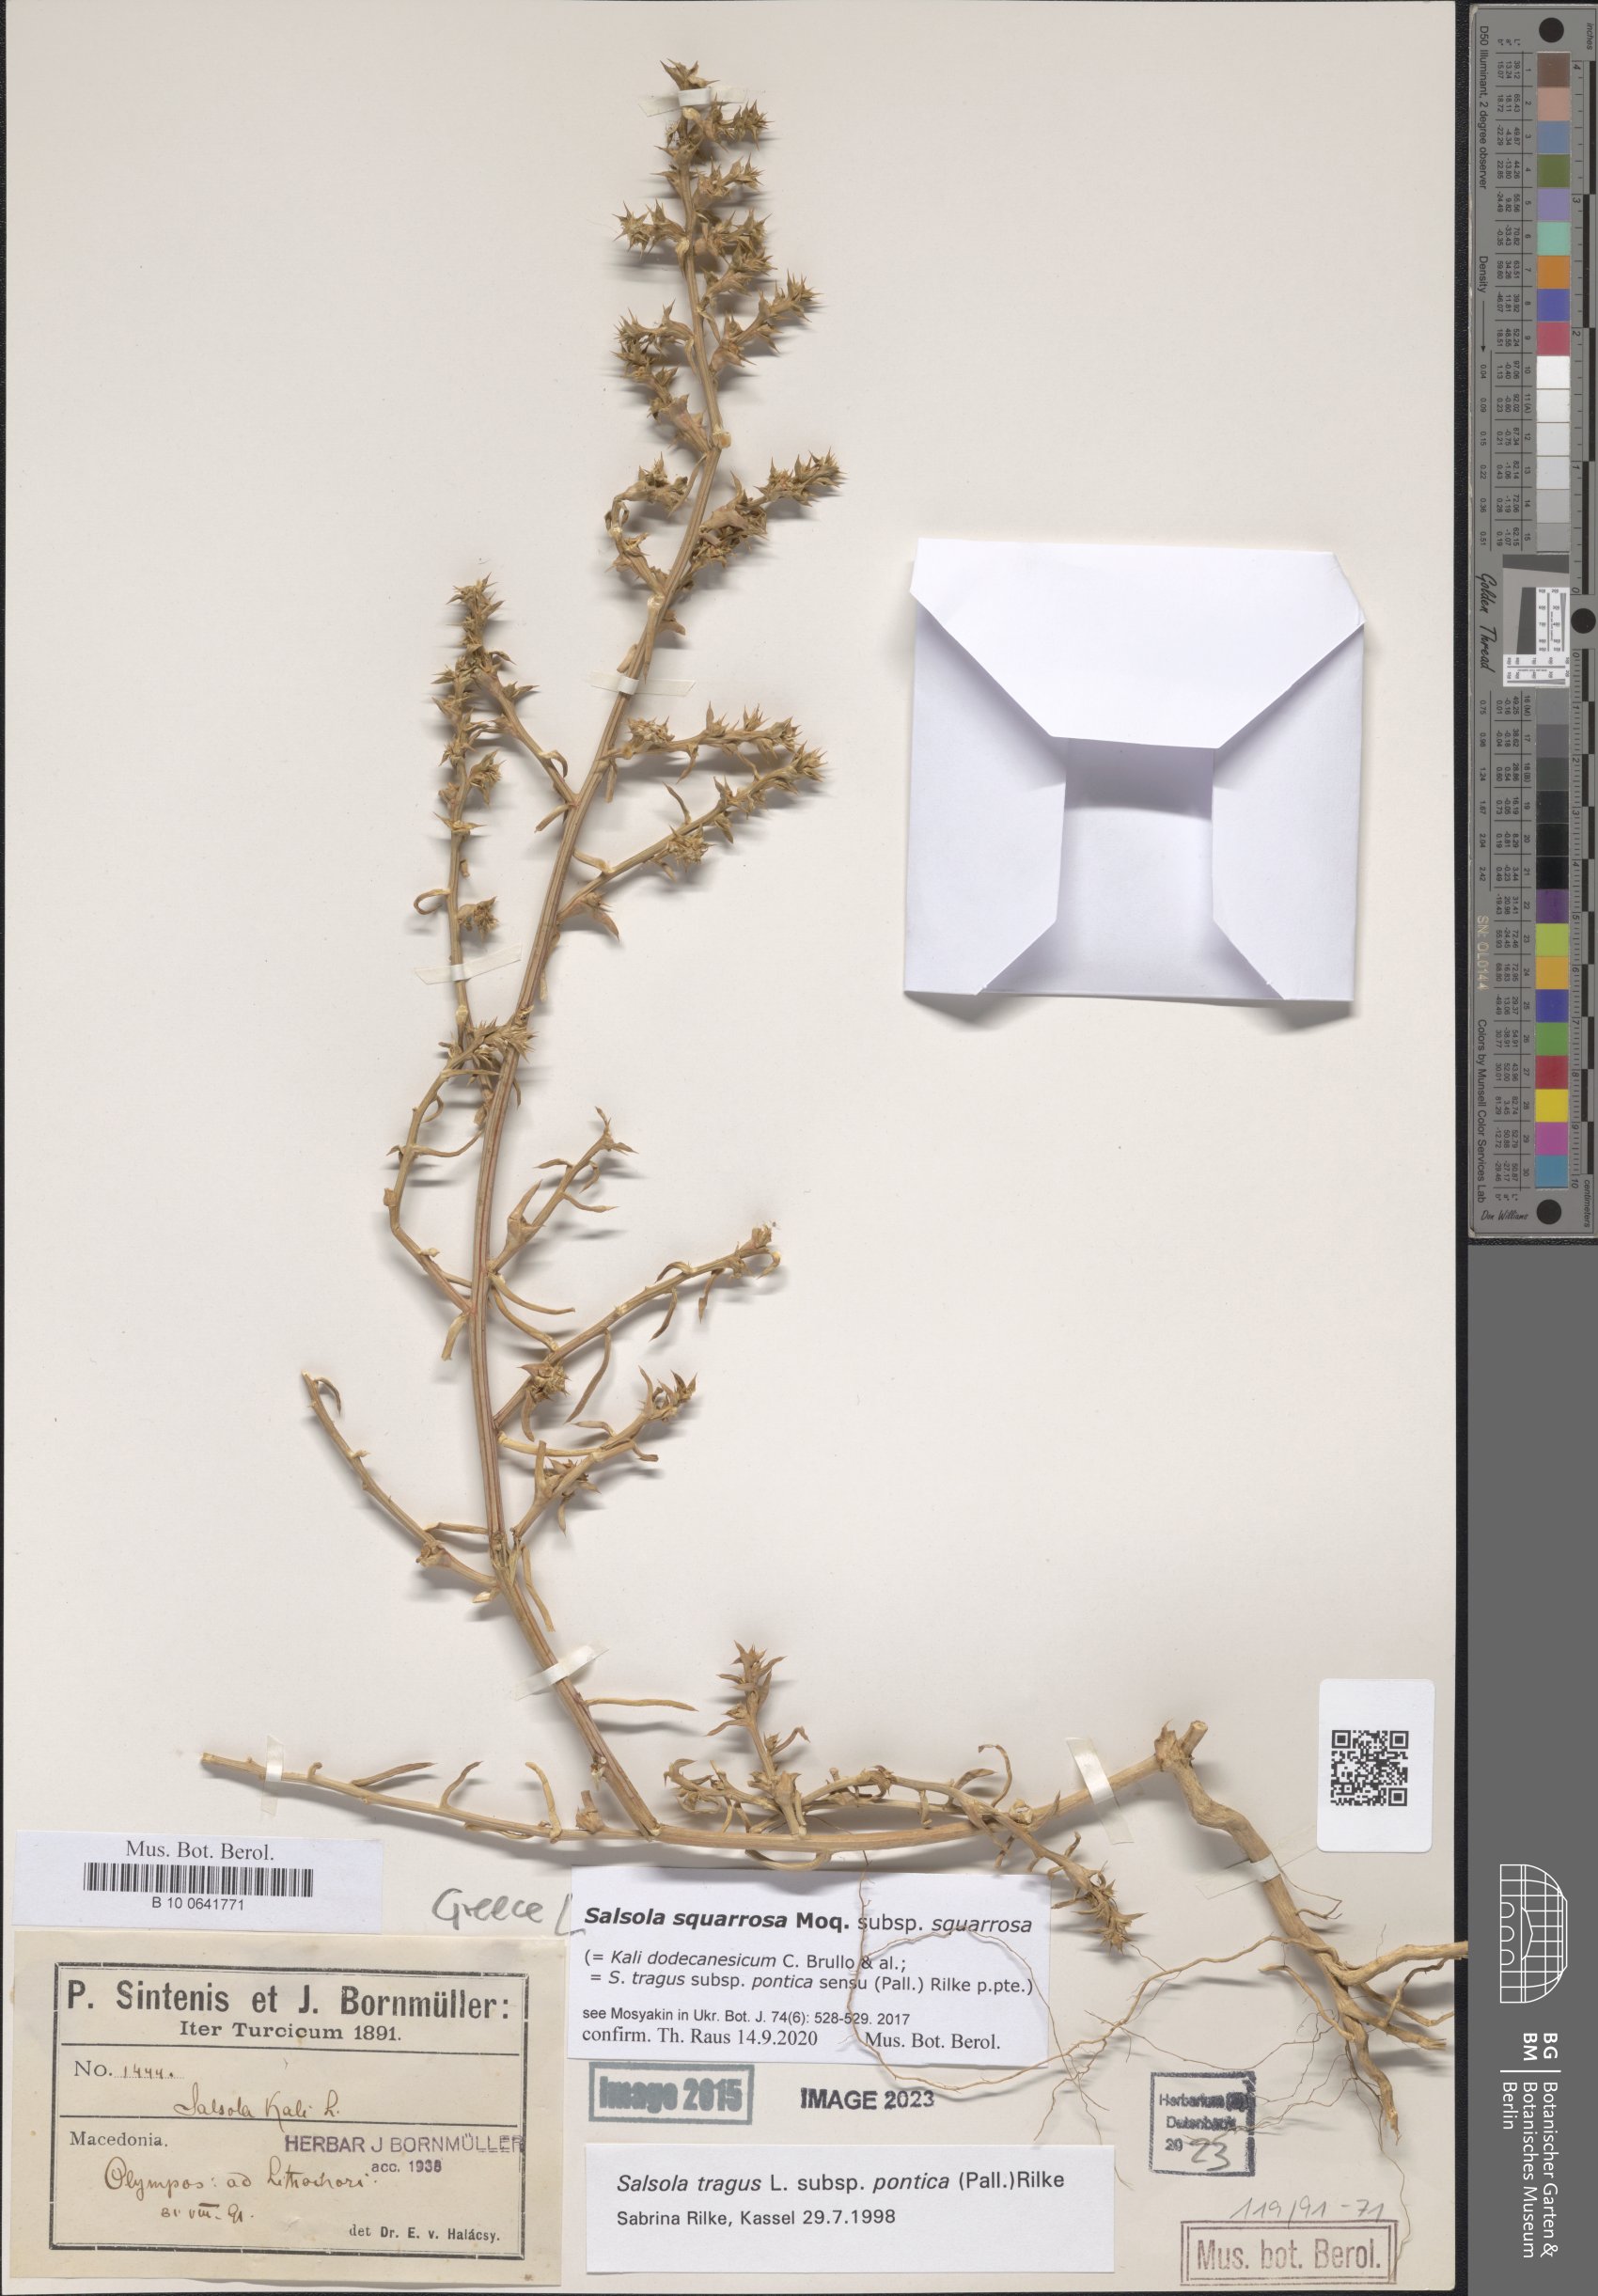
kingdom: Plantae
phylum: Tracheophyta
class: Magnoliopsida
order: Caryophyllales
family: Amaranthaceae
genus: Salsola
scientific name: Salsola squarrosa
